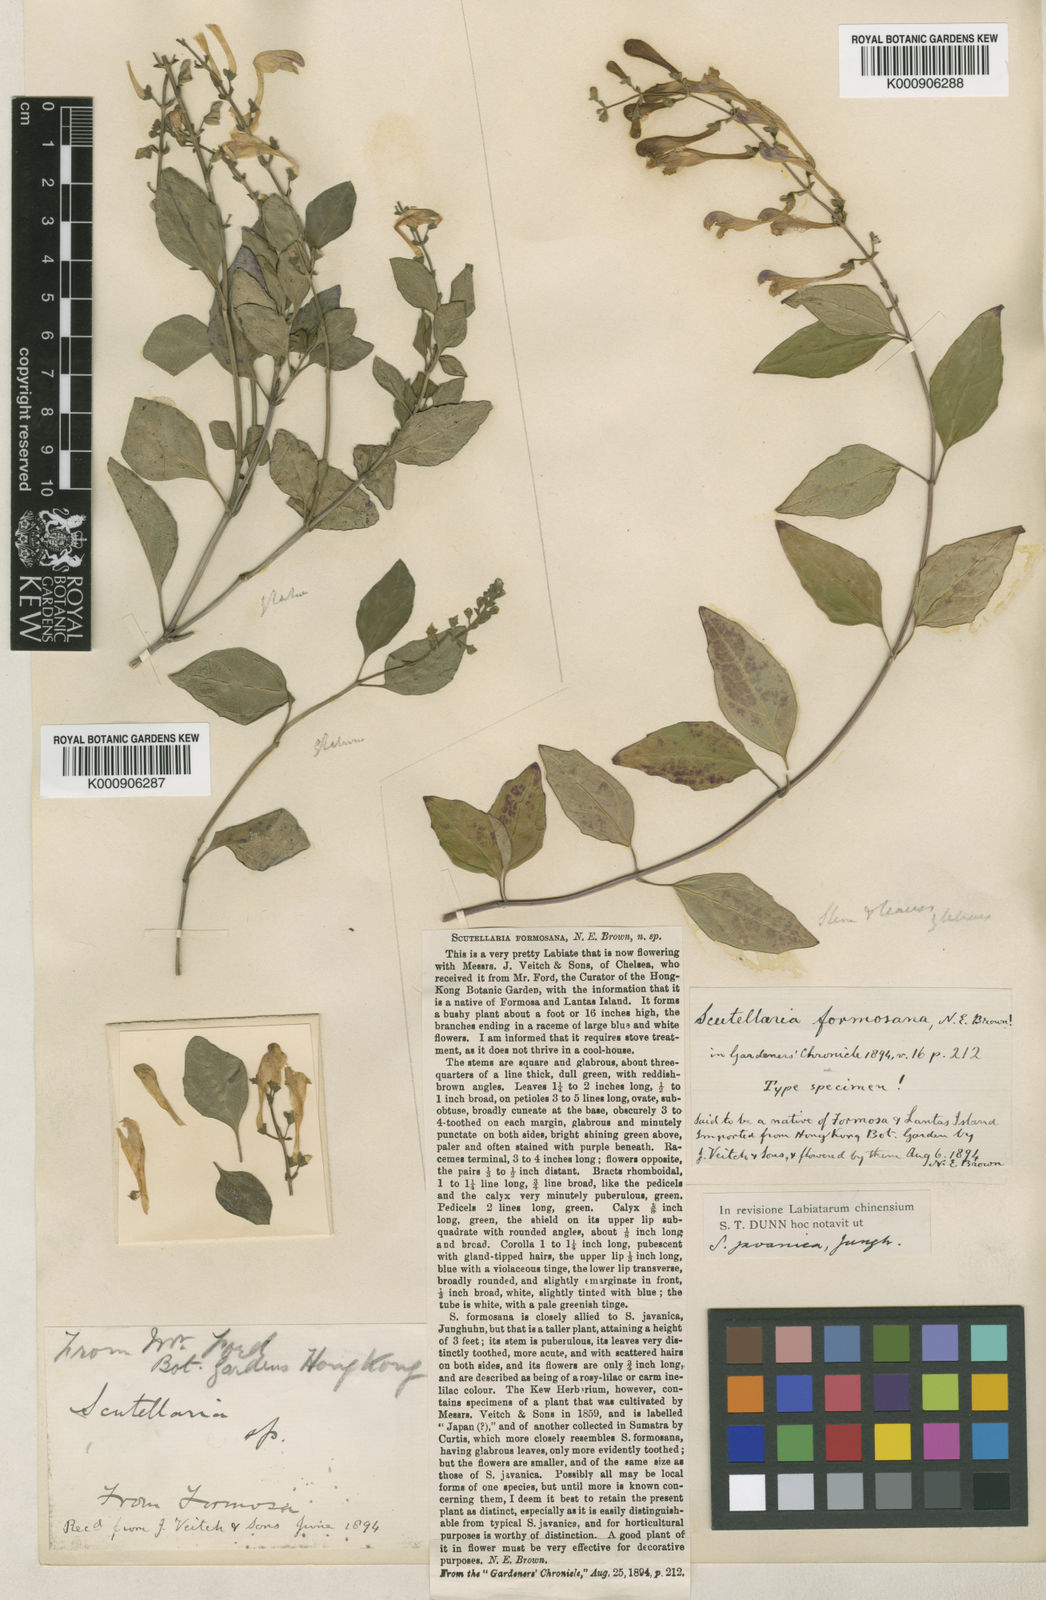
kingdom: Plantae
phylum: Tracheophyta
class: Magnoliopsida
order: Lamiales
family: Lamiaceae
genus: Scutellaria
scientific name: Scutellaria javanica
